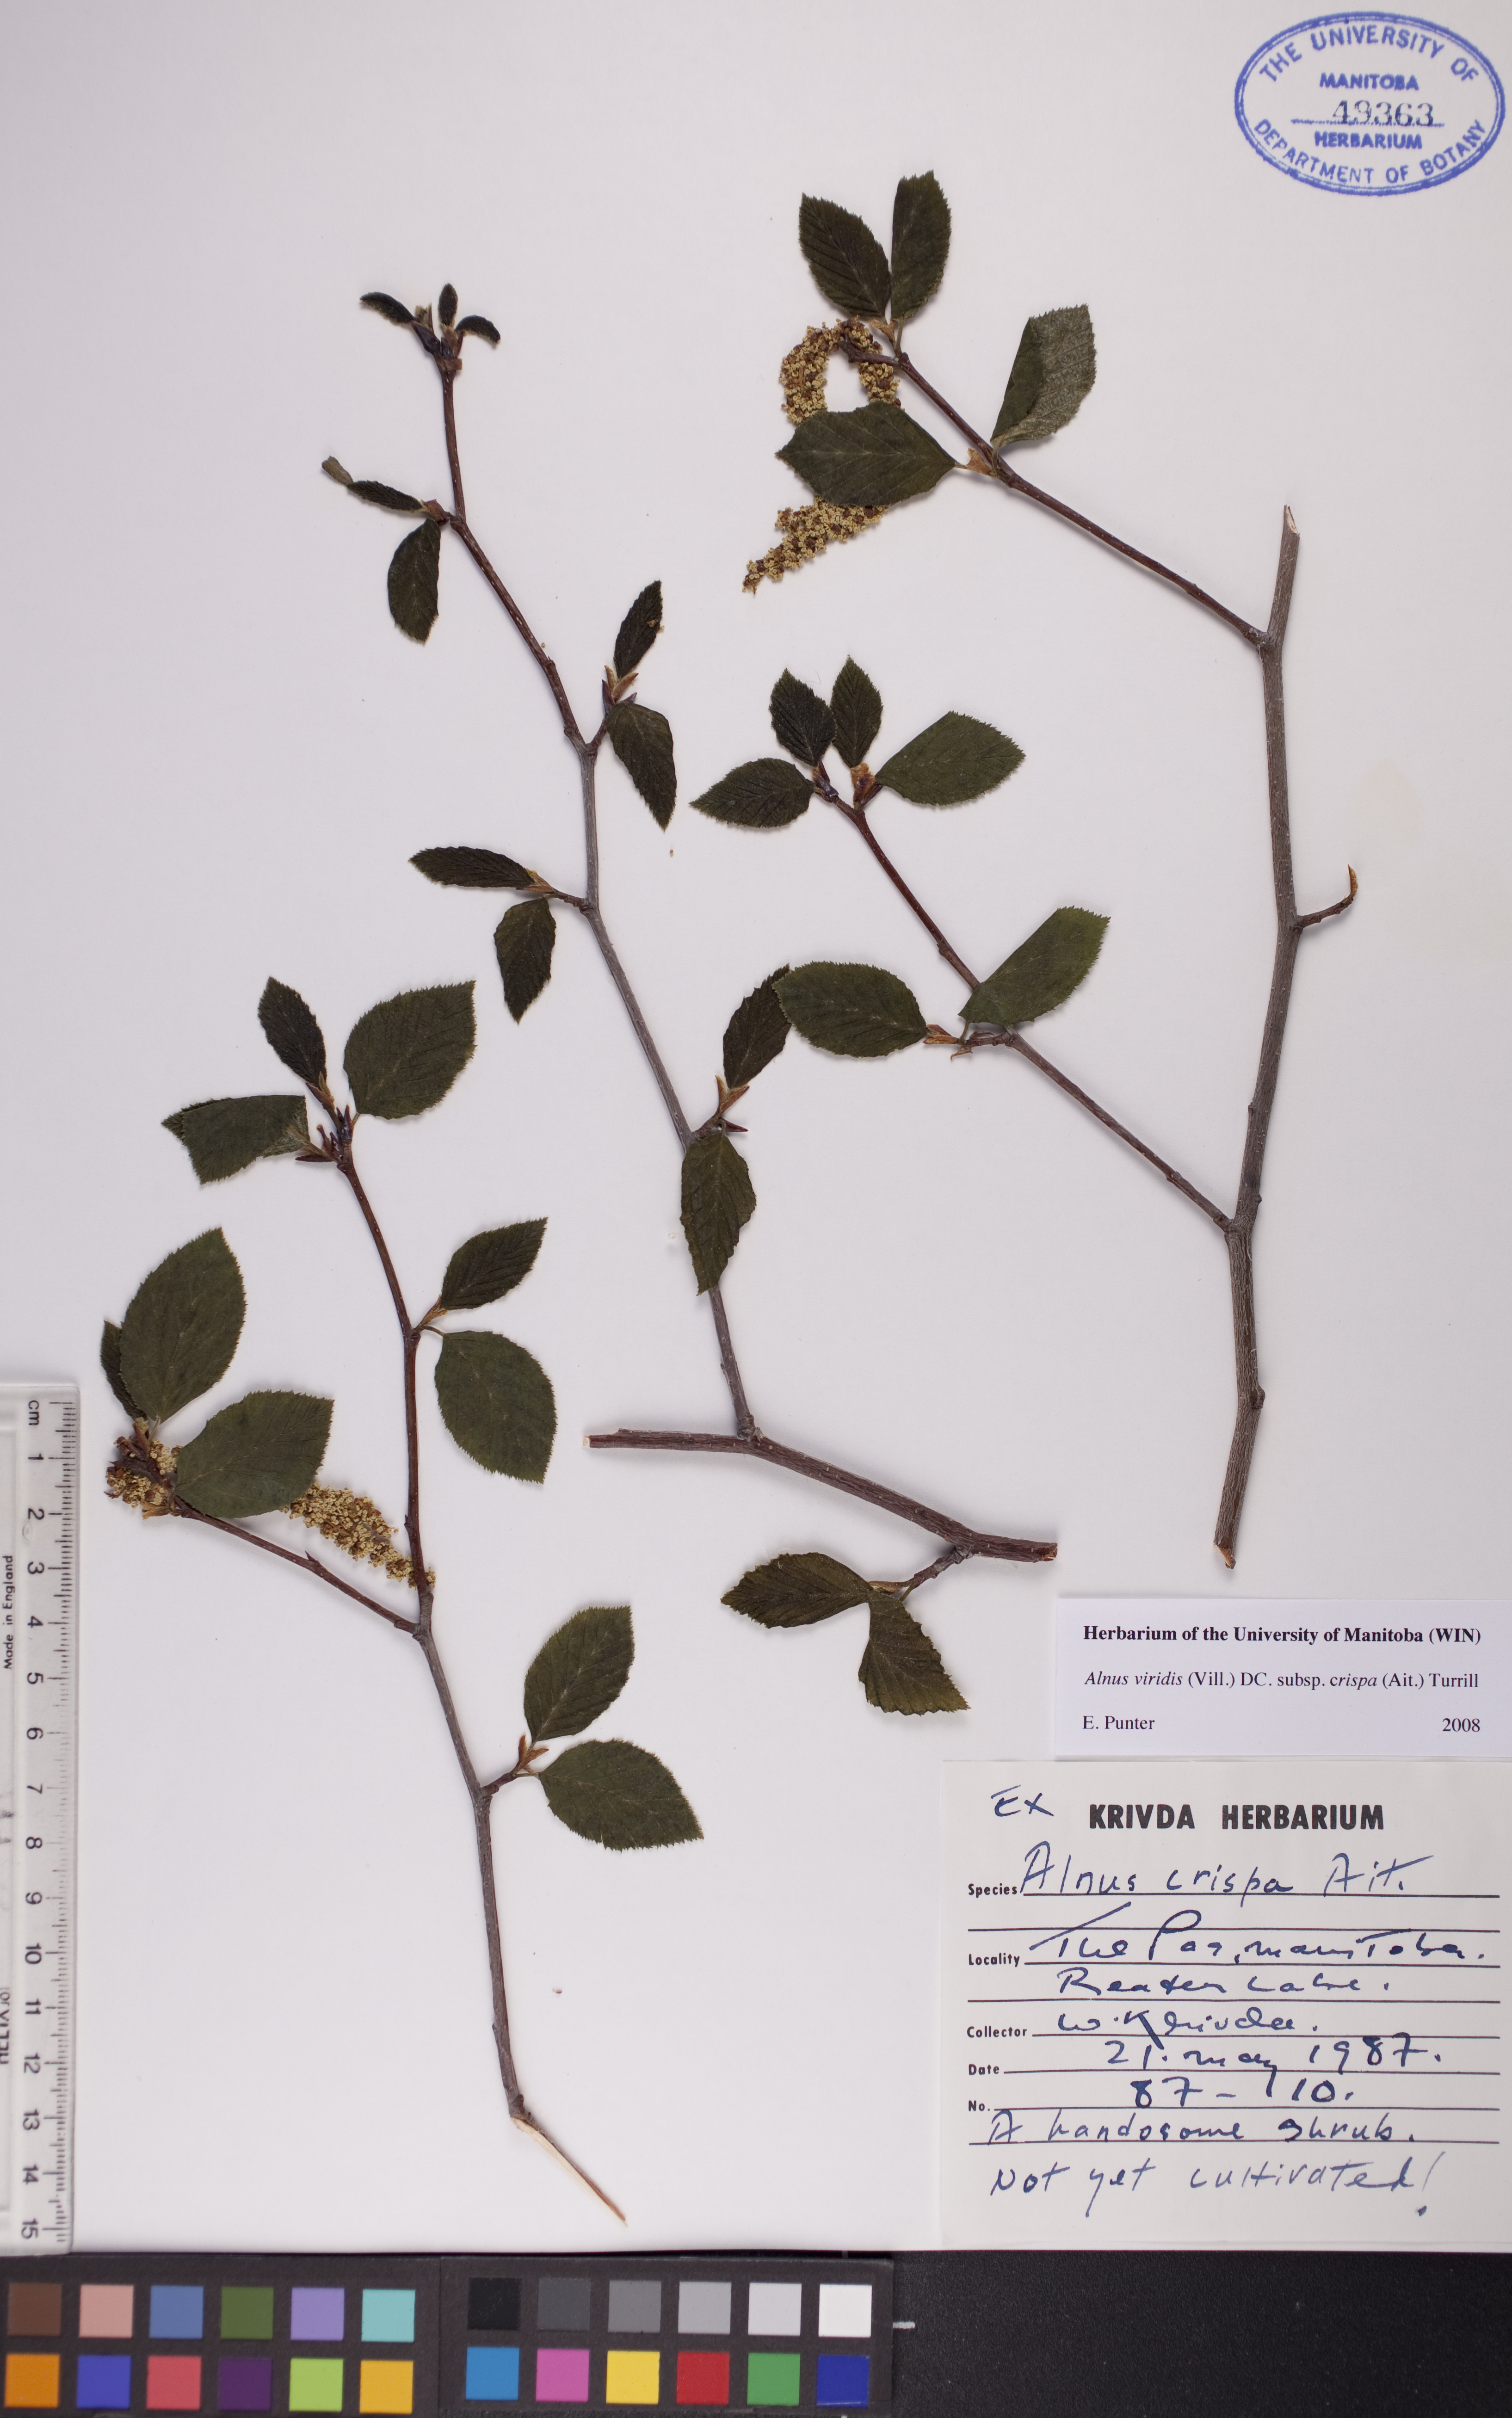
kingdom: Plantae
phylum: Tracheophyta
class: Magnoliopsida
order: Fagales
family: Betulaceae
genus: Alnus
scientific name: Alnus alnobetula
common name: Green alder
